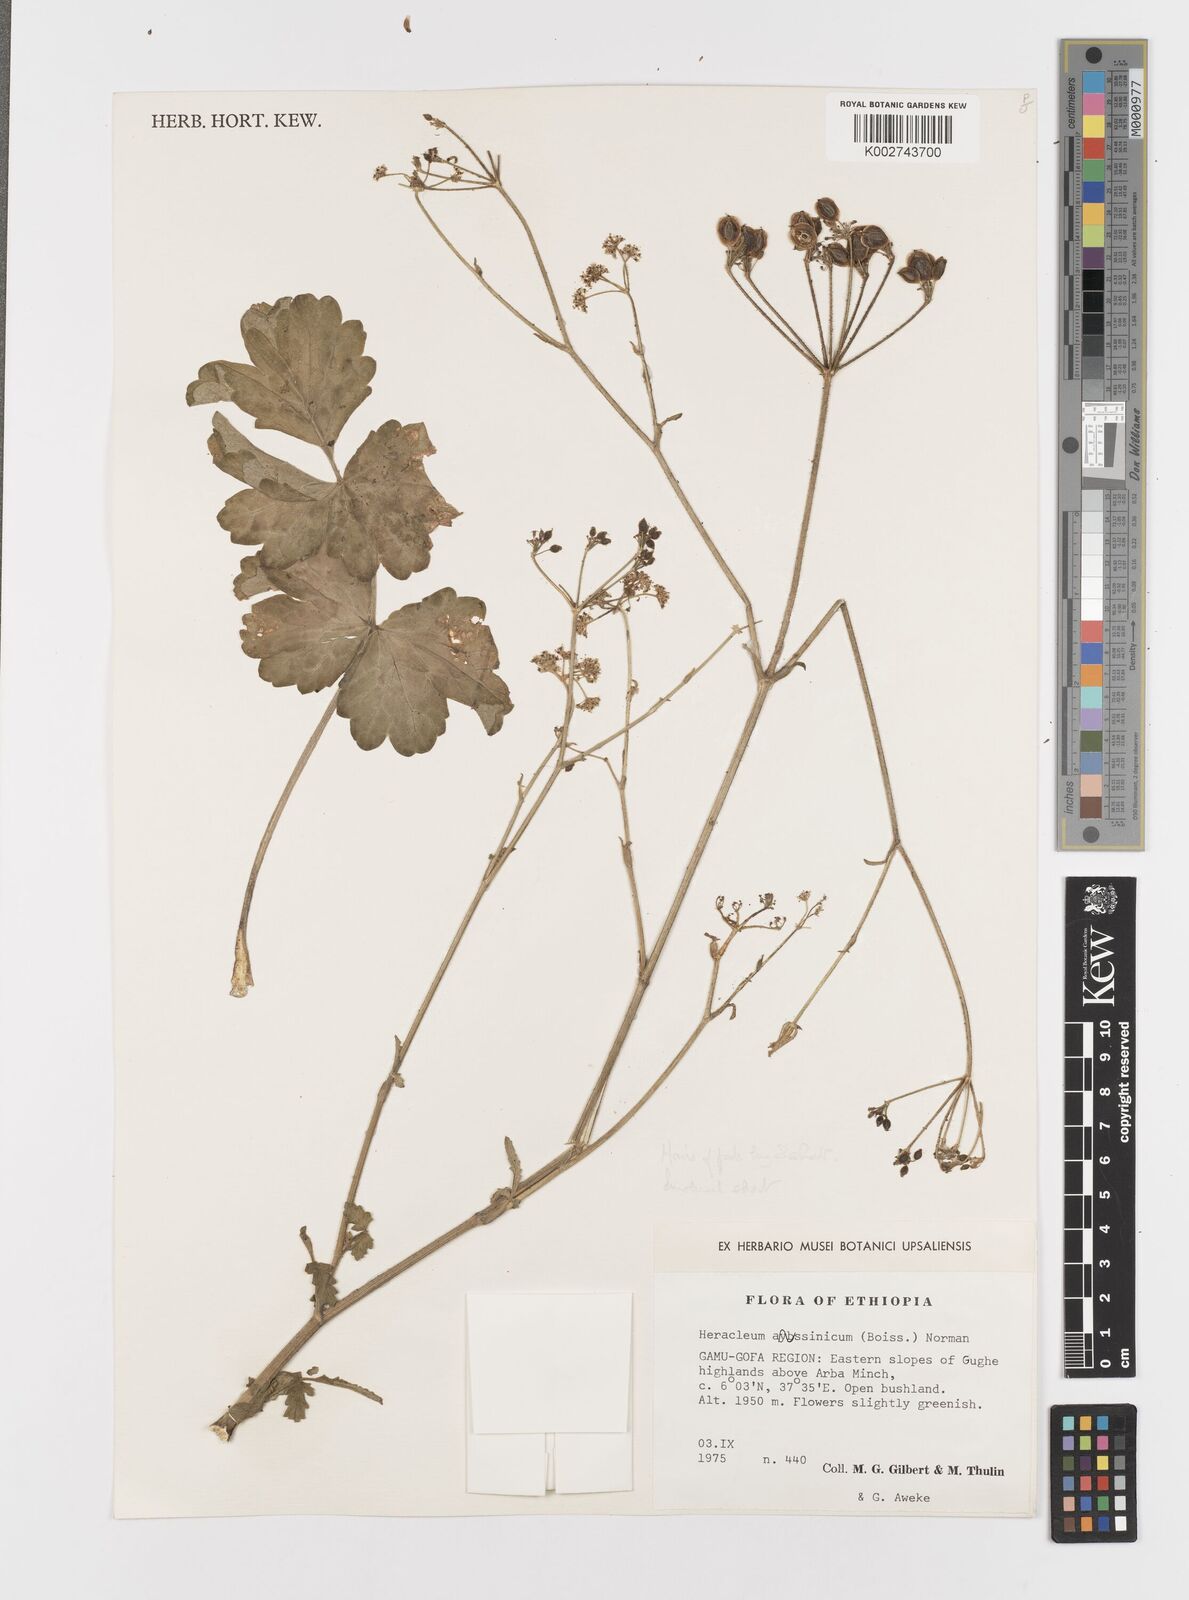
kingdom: Plantae
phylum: Tracheophyta
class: Magnoliopsida
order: Apiales
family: Apiaceae
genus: Heracleum
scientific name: Heracleum abyssinicum
